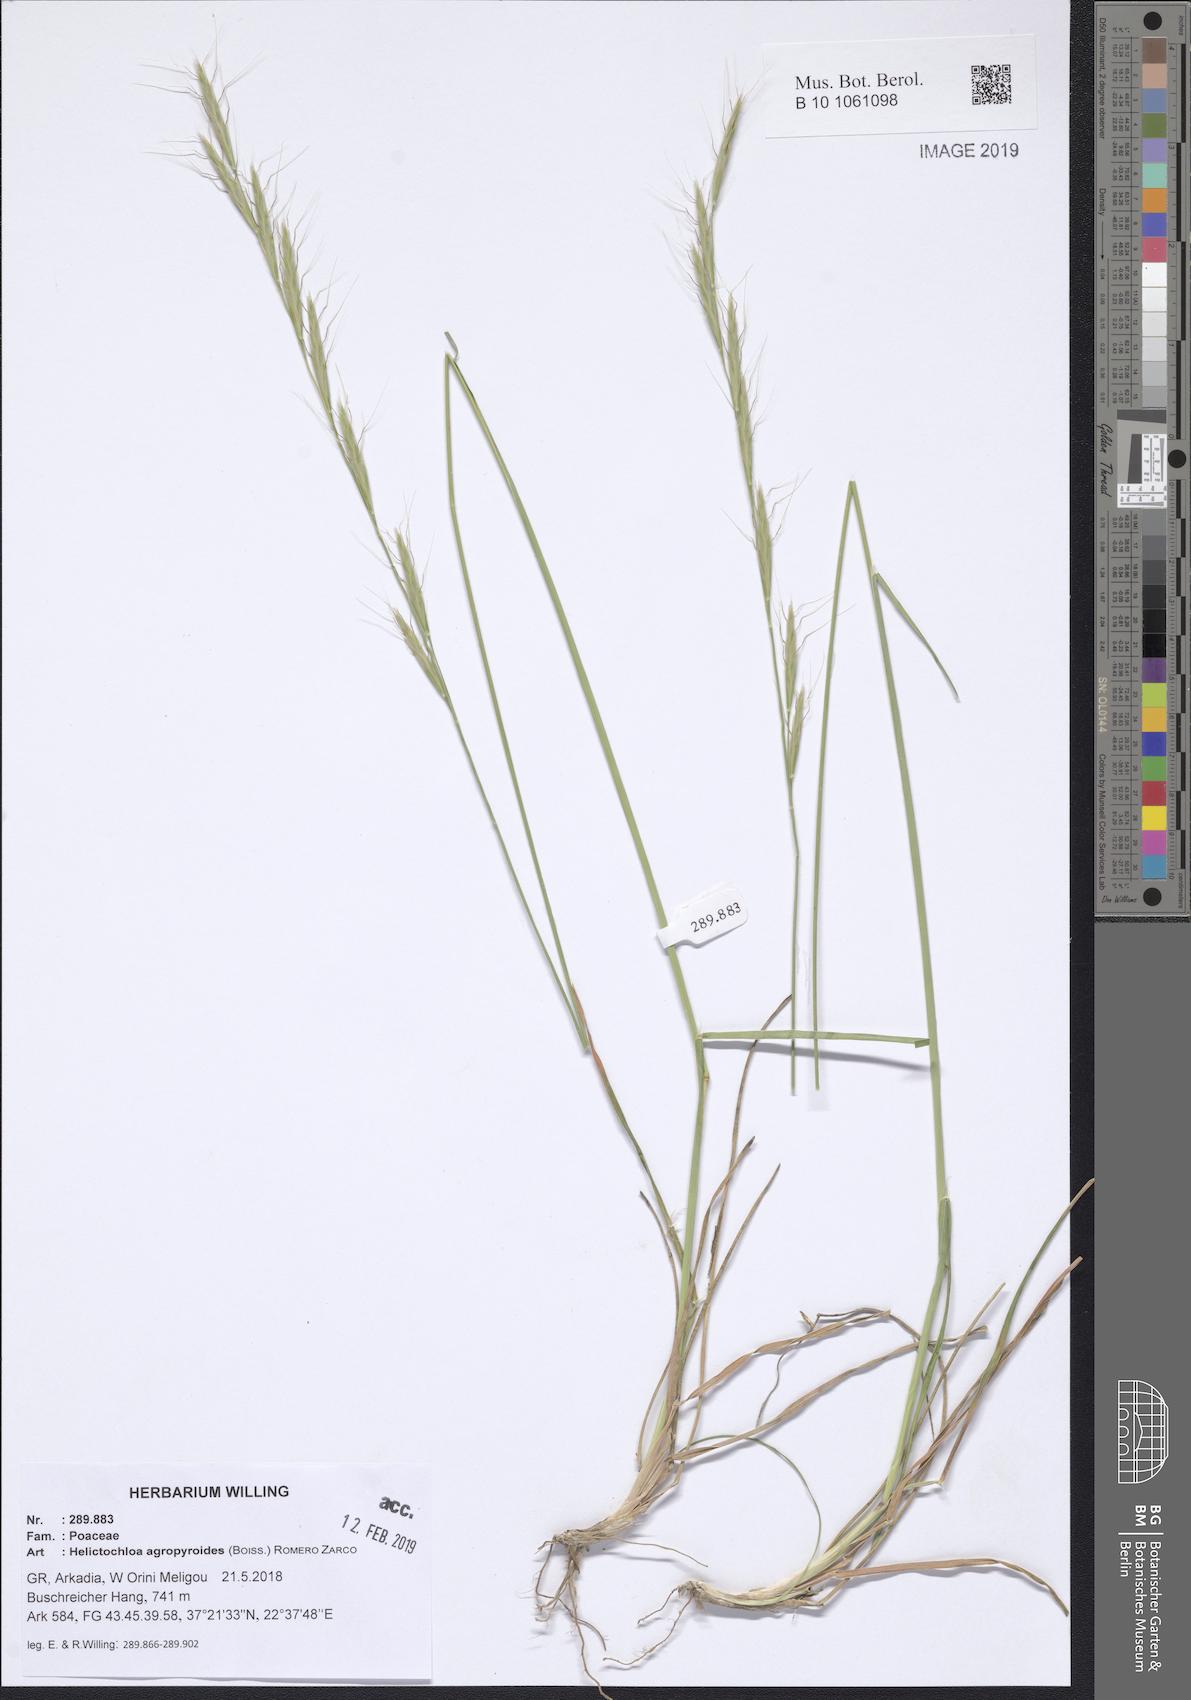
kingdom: Plantae
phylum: Tracheophyta
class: Liliopsida
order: Poales
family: Poaceae
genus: Helictochloa
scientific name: Helictochloa agropyroides
